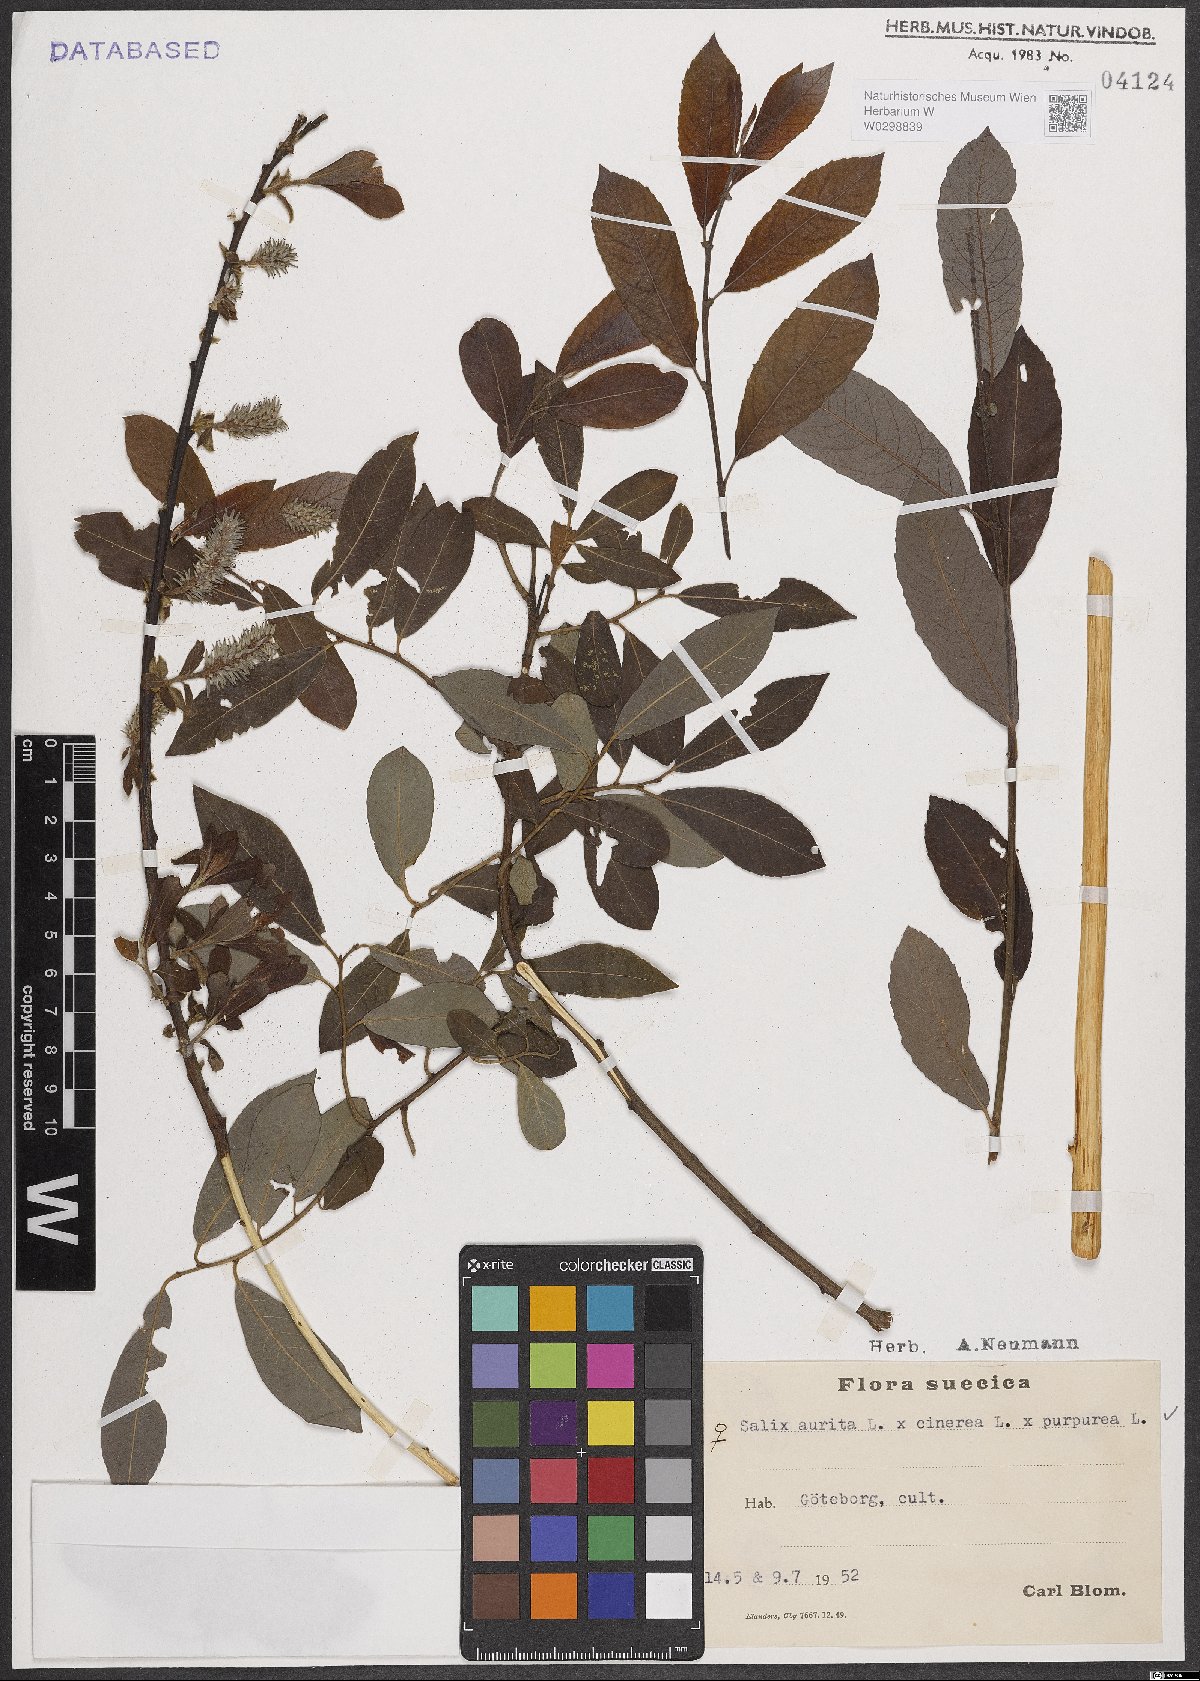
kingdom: Plantae
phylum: Tracheophyta
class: Magnoliopsida
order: Malpighiales
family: Salicaceae
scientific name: Salicaceae
